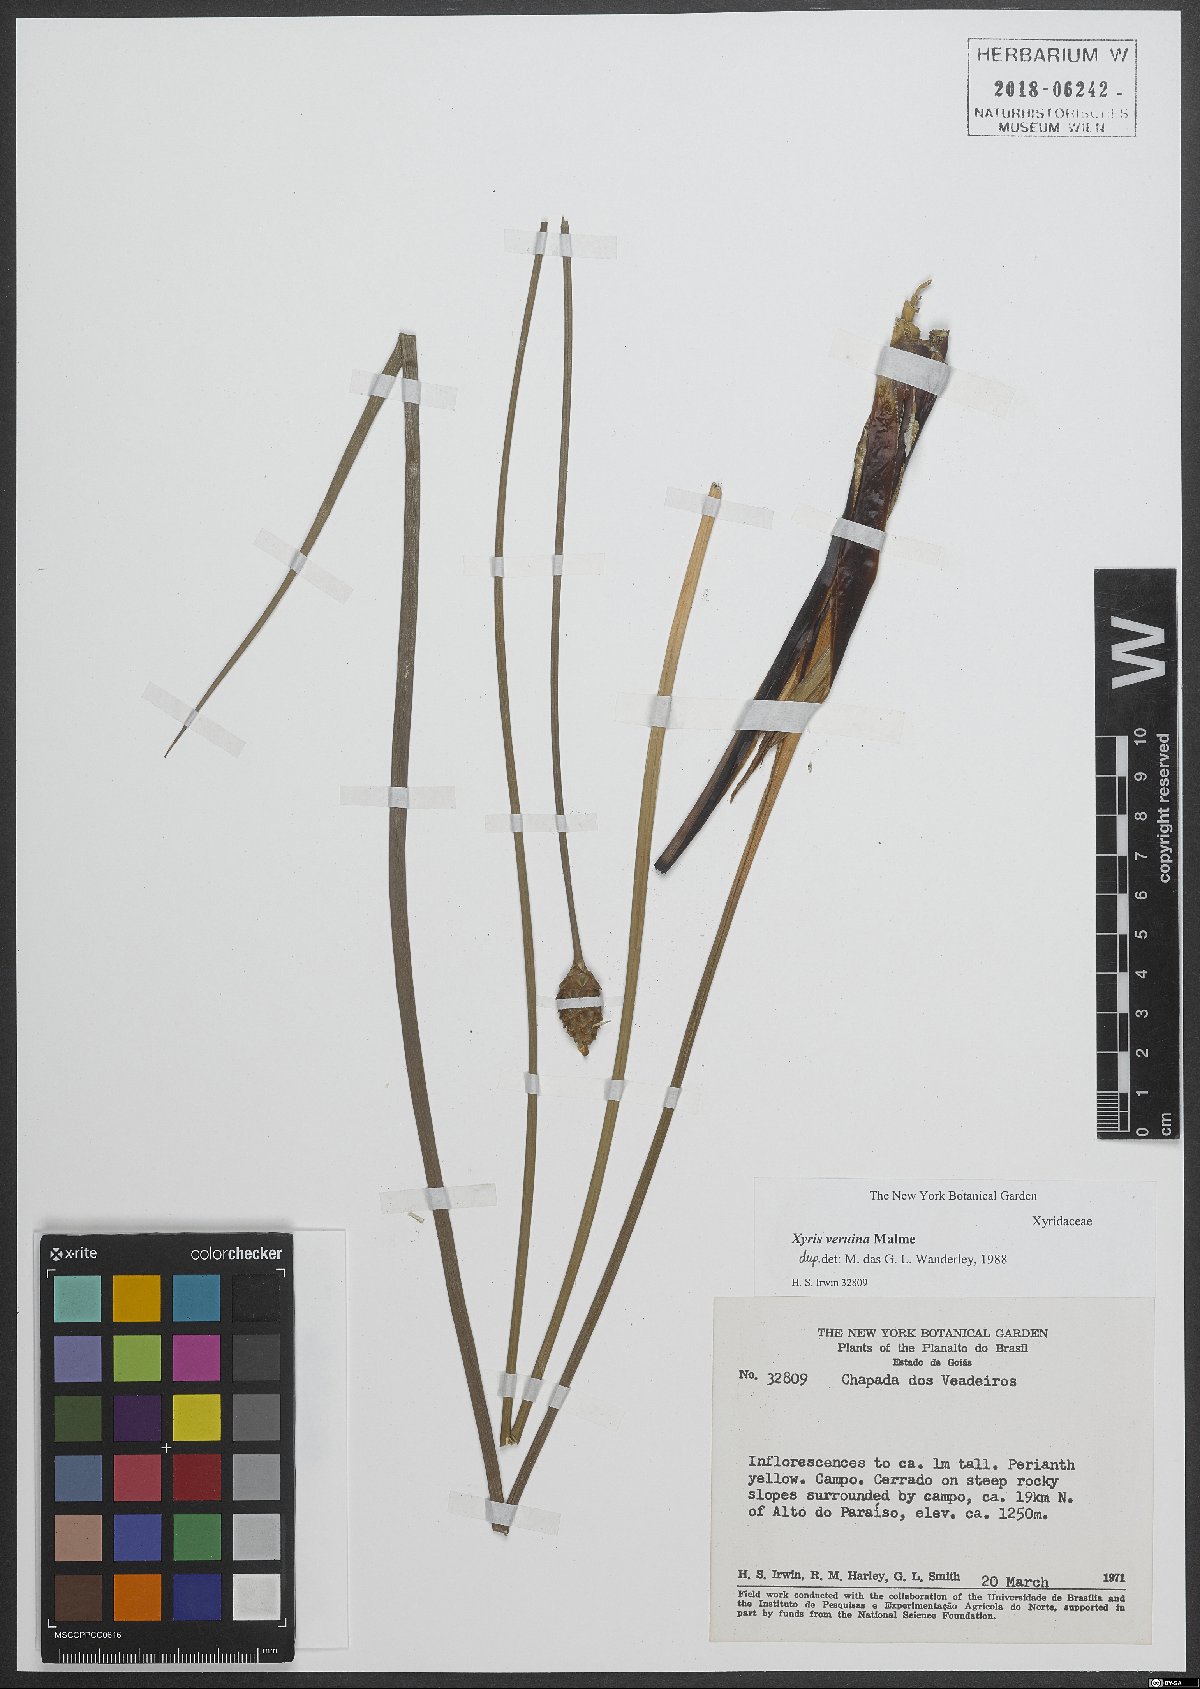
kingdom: Plantae
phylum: Tracheophyta
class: Liliopsida
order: Poales
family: Xyridaceae
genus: Xyris
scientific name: Xyris veruina
